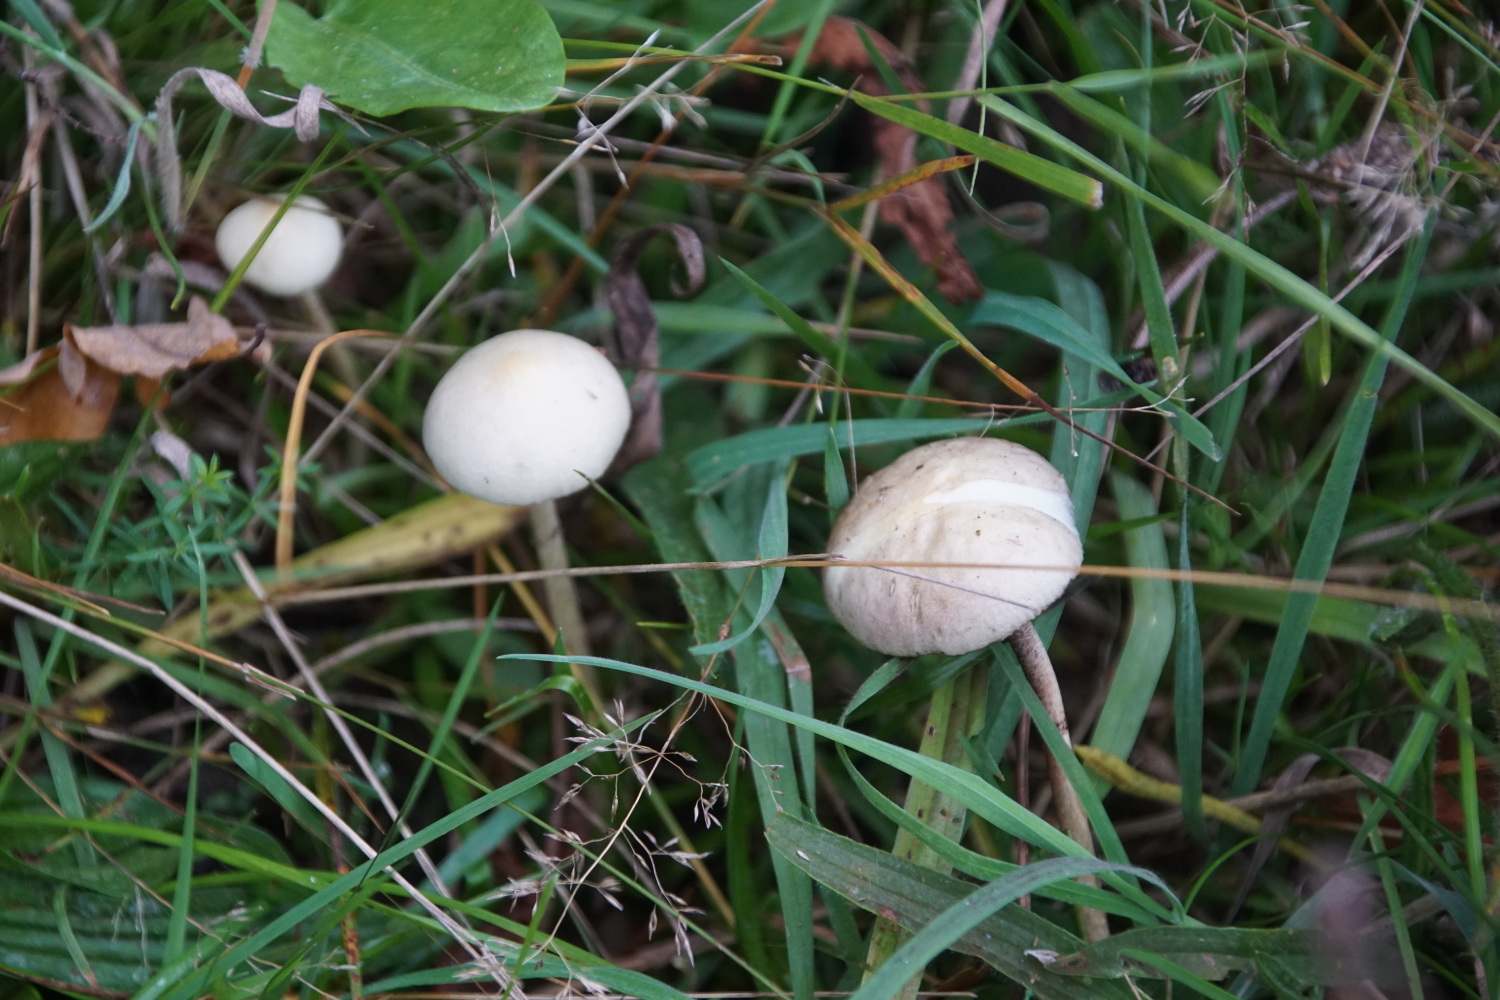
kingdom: Fungi
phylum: Basidiomycota
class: Agaricomycetes
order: Agaricales
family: Strophariaceae
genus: Protostropharia
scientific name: Protostropharia semiglobata
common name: halvkugleformet bredblad
